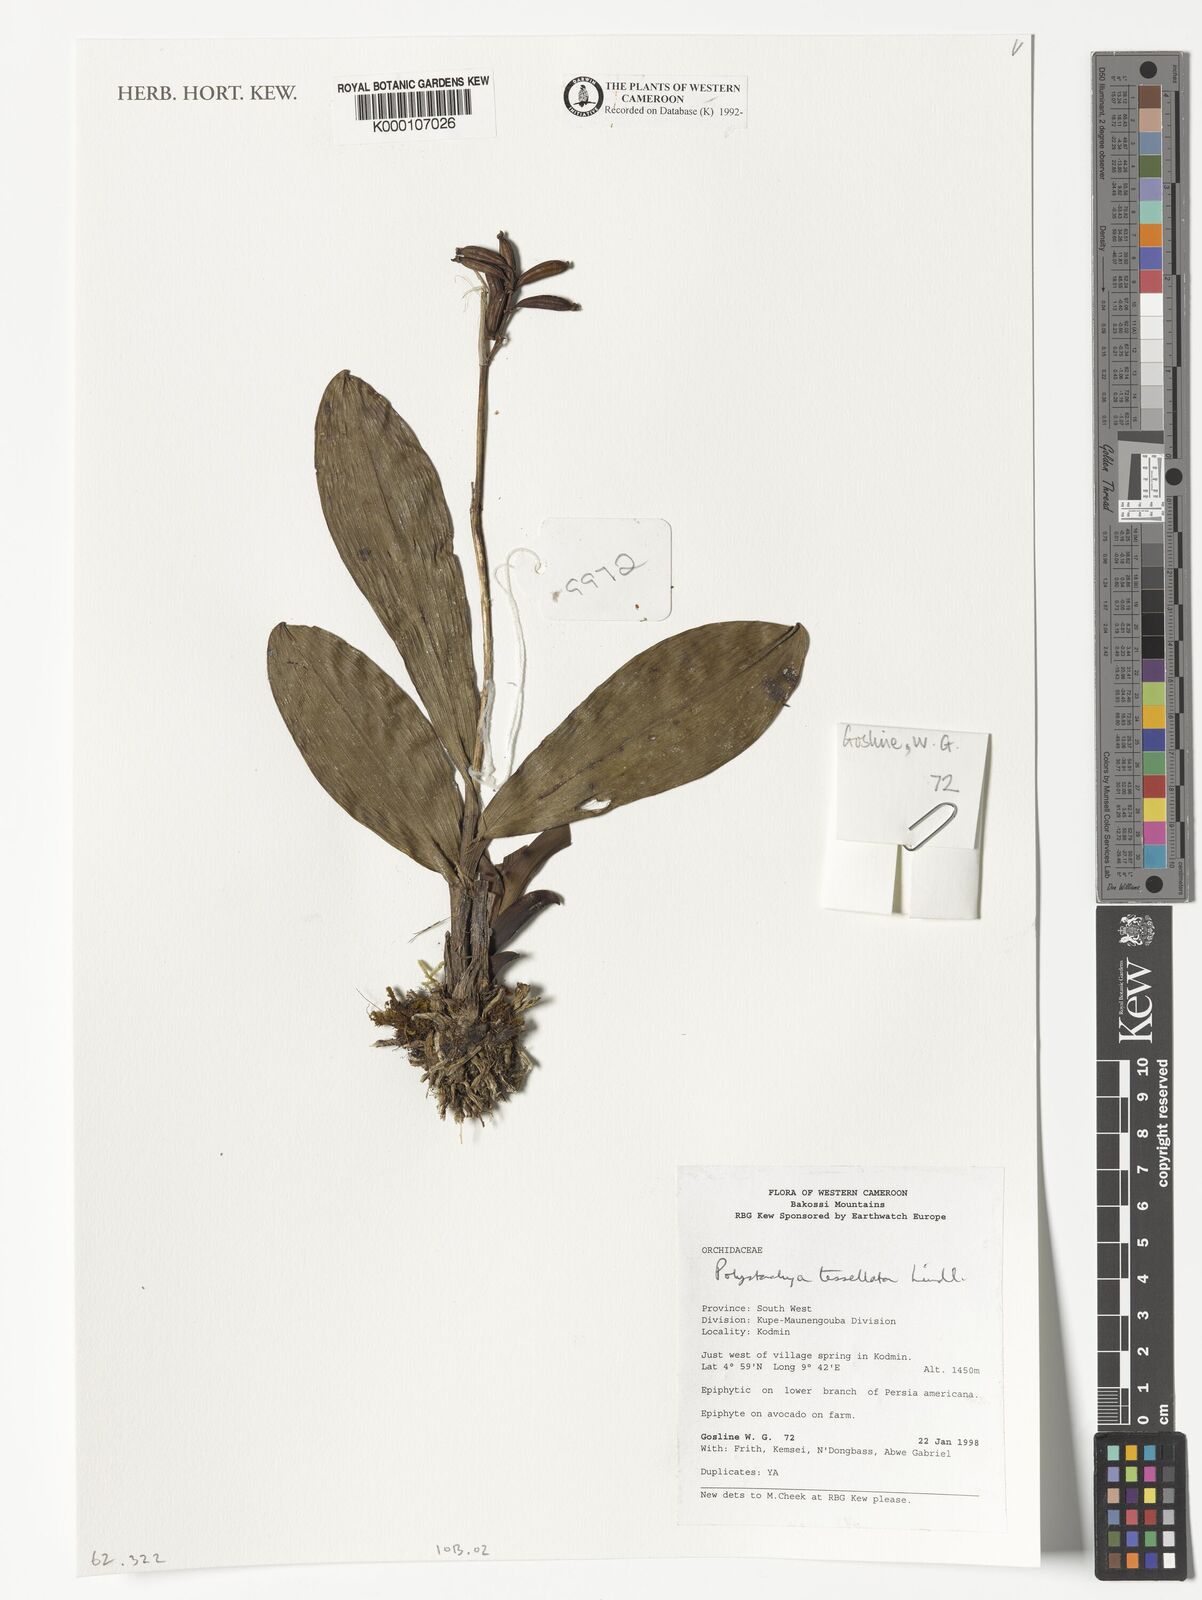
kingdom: Plantae
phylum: Tracheophyta
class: Liliopsida
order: Asparagales
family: Orchidaceae
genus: Polystachya
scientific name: Polystachya concreta
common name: Greater yellowspike orchid
